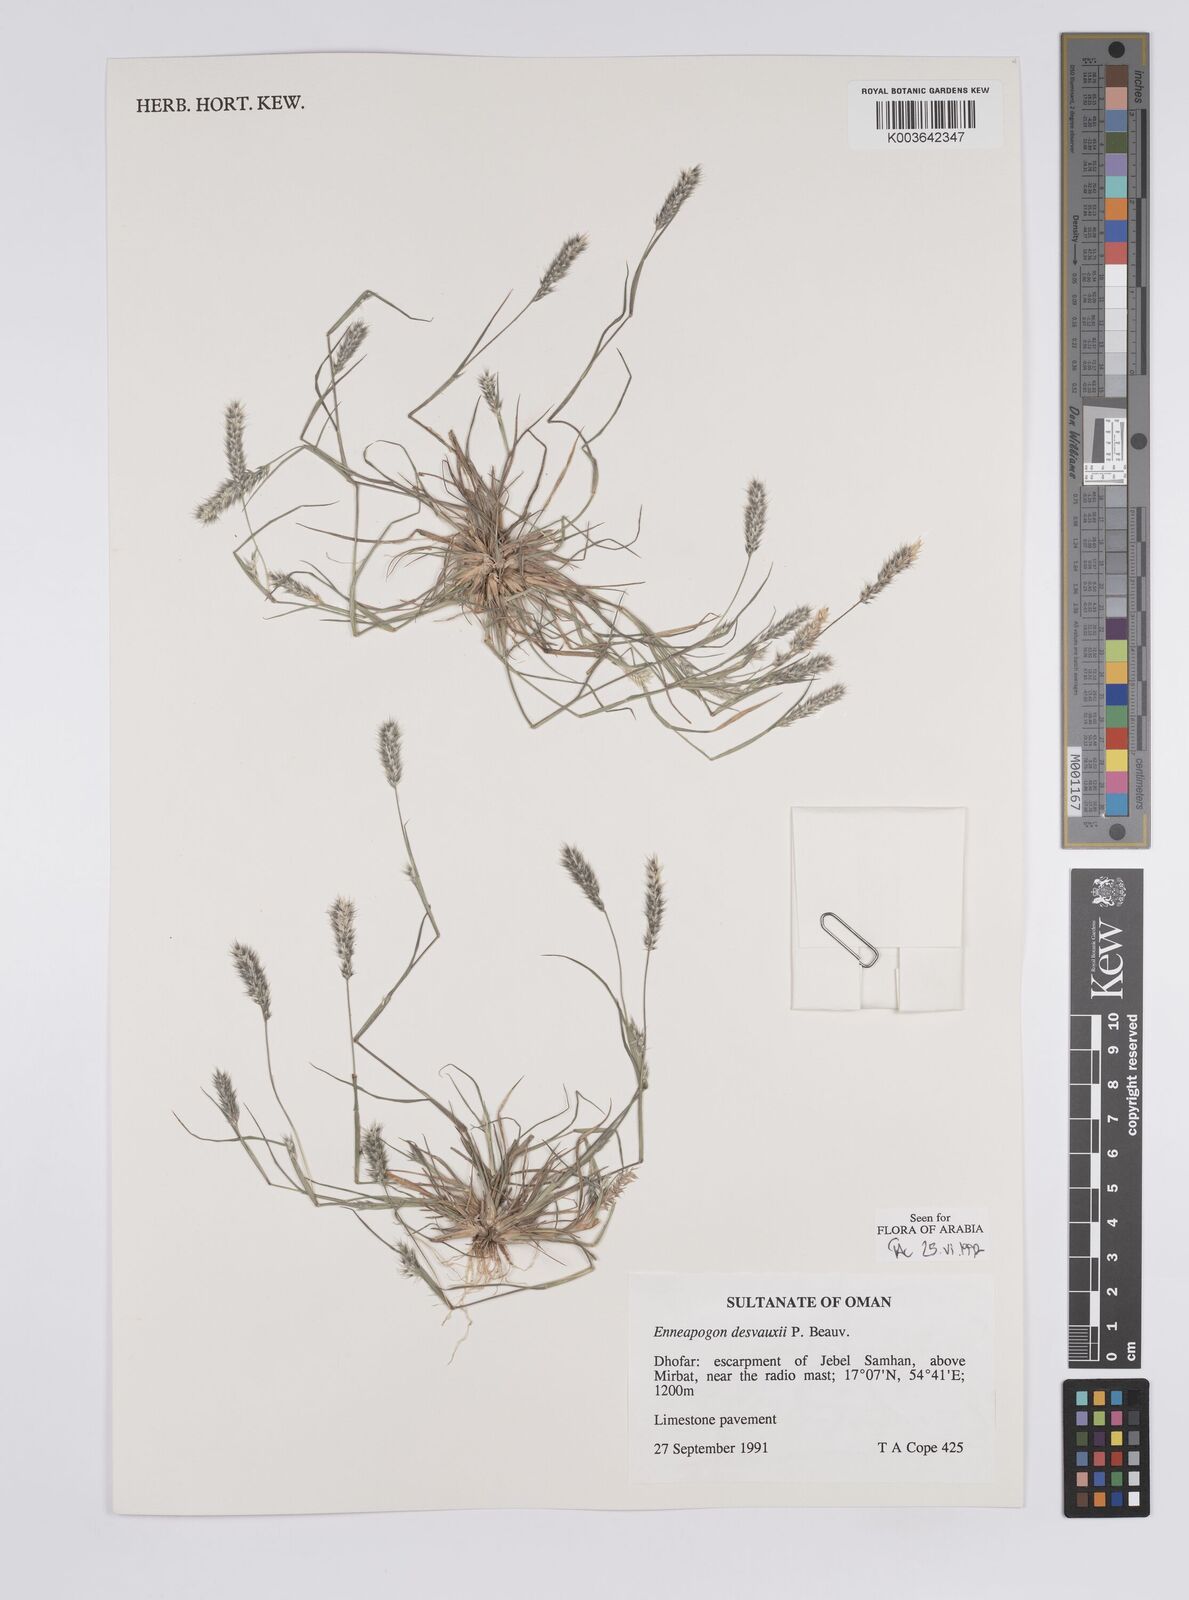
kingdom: Plantae
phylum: Tracheophyta
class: Liliopsida
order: Poales
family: Poaceae
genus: Enneapogon
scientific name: Enneapogon desvauxii
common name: Feather pappus grass
